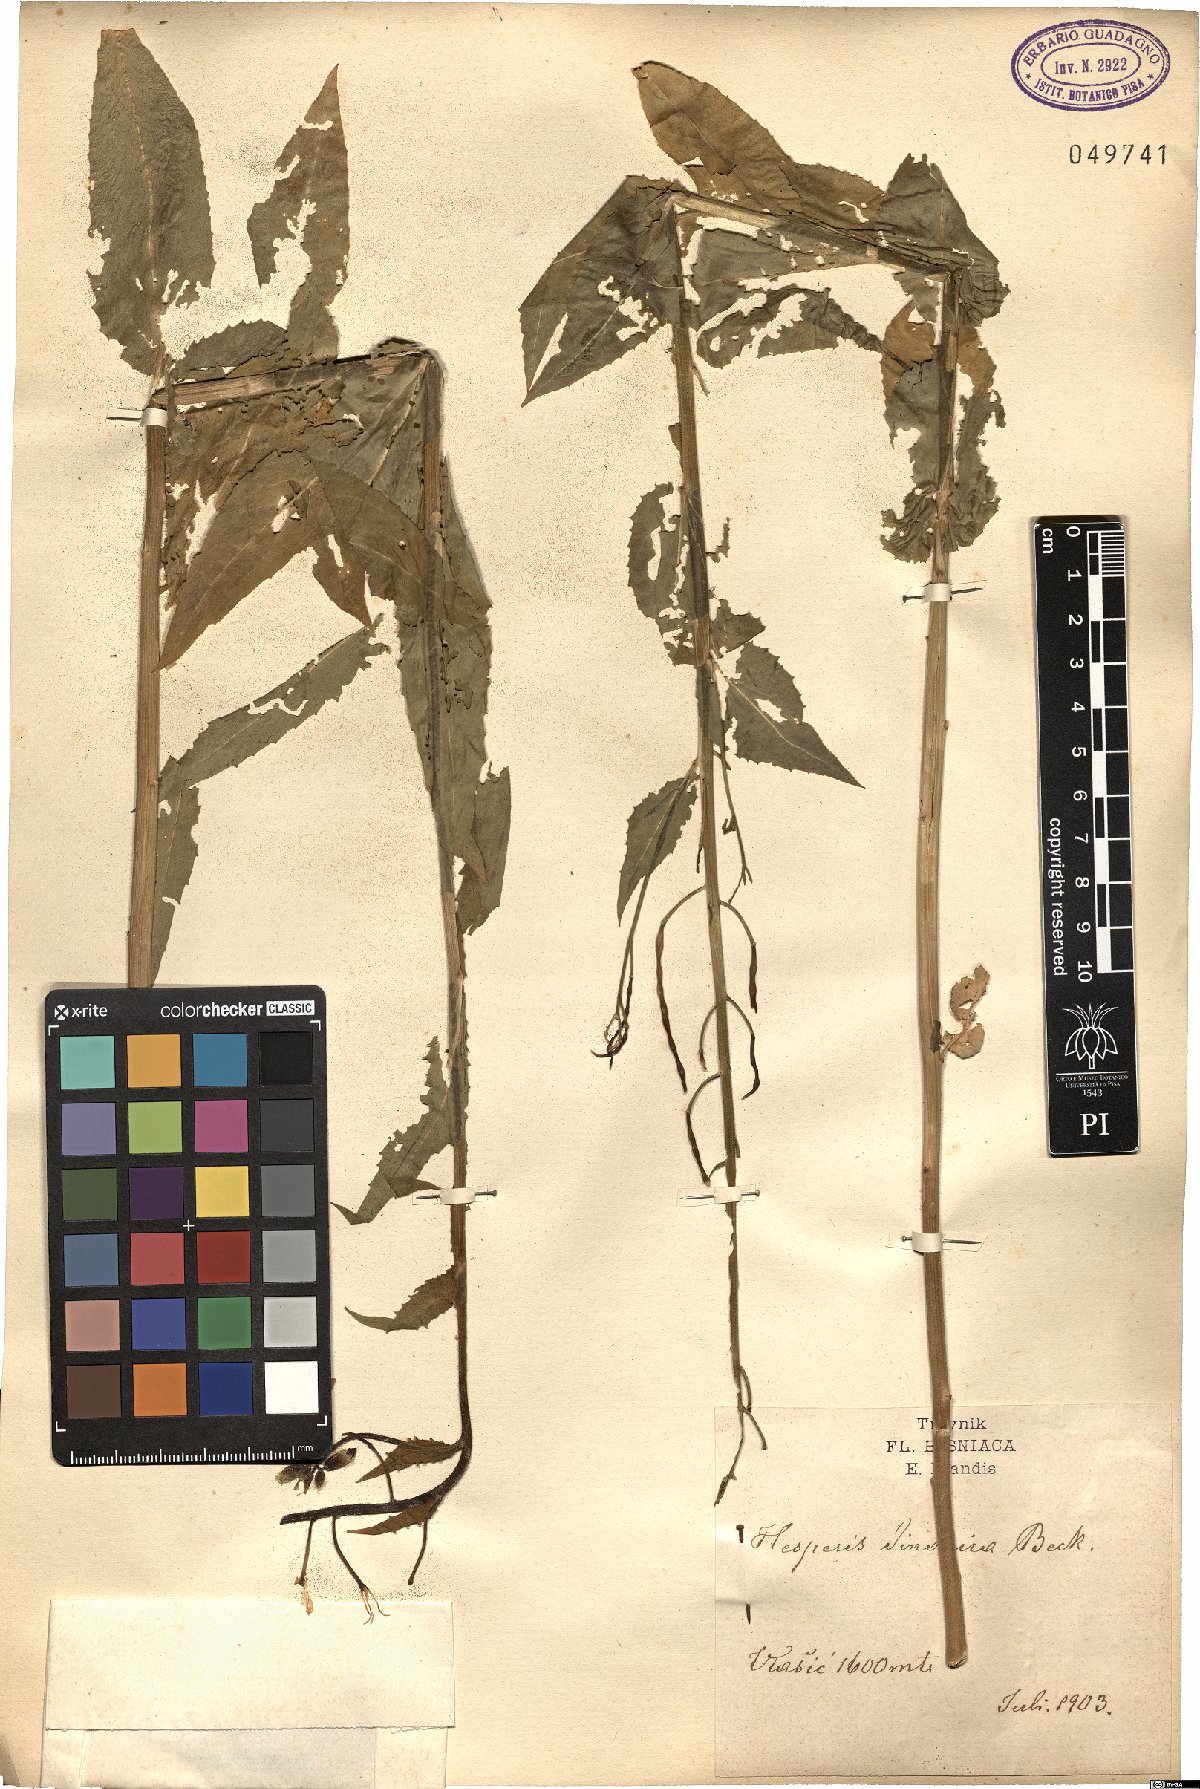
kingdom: Plantae
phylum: Tracheophyta
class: Magnoliopsida
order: Brassicales
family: Brassicaceae
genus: Hesperis
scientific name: Hesperis dinarica
